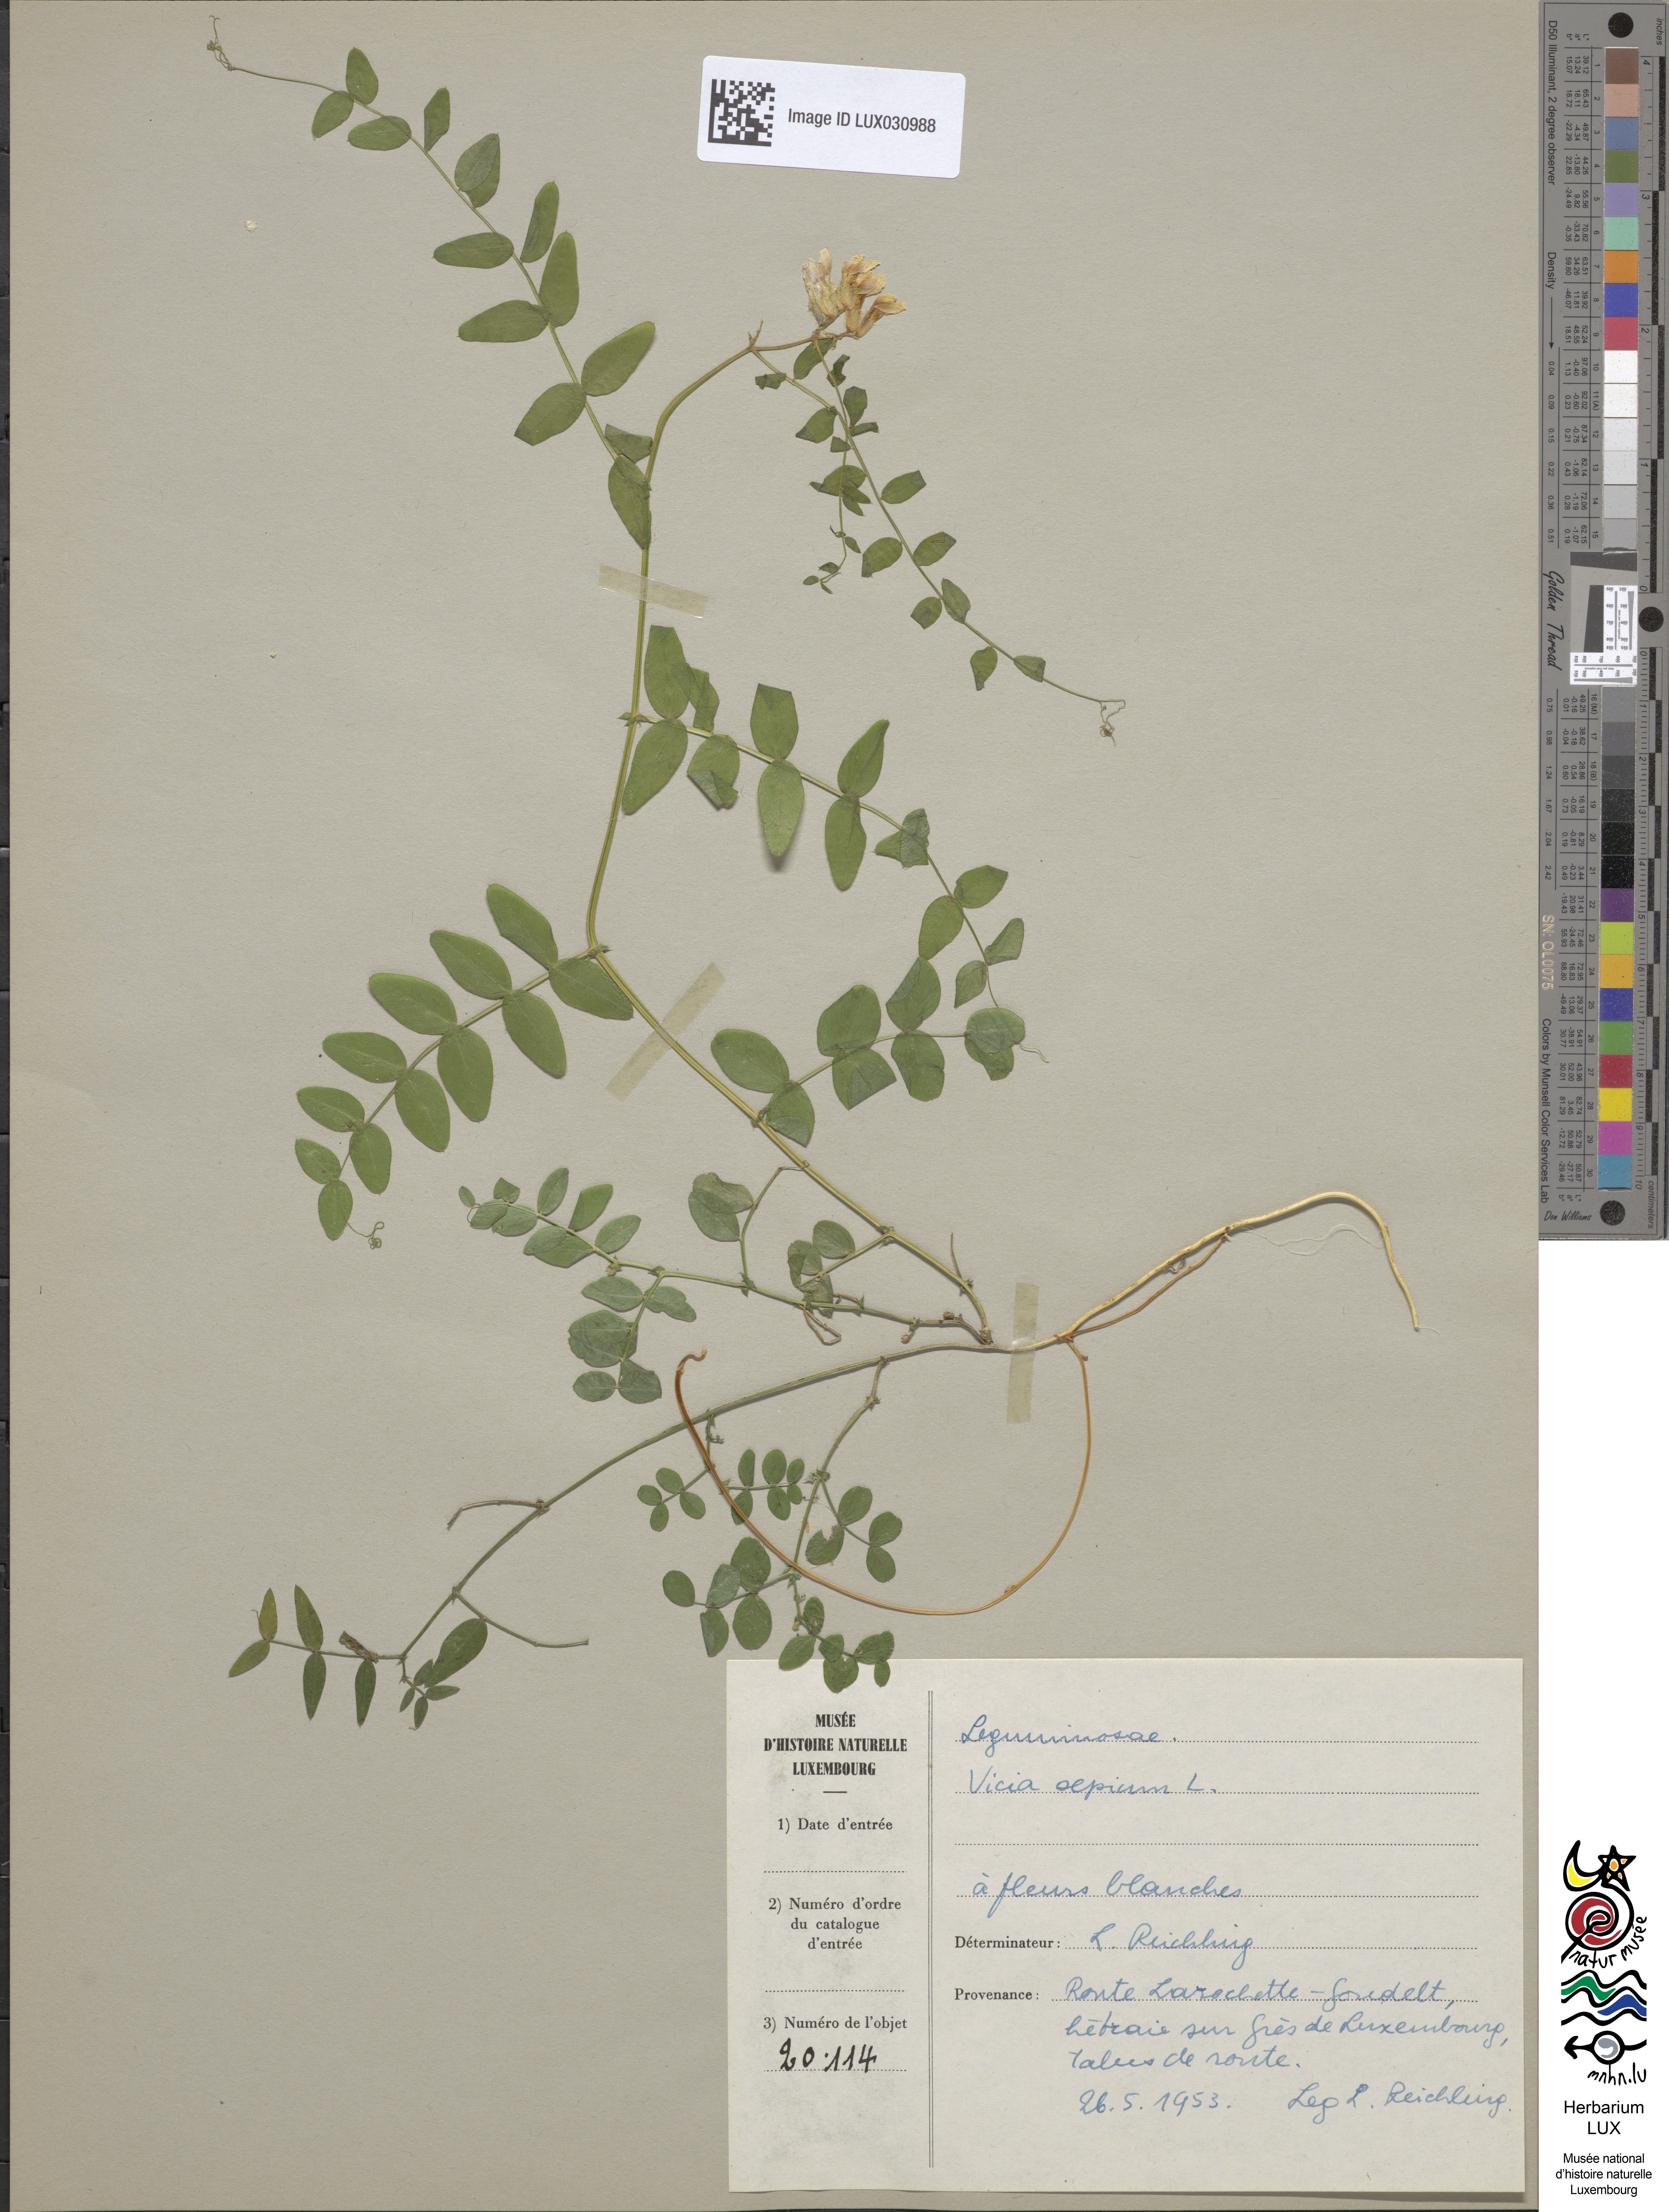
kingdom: Plantae
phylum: Tracheophyta
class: Magnoliopsida
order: Fabales
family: Fabaceae
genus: Vicia
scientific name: Vicia sepium
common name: Bush vetch
